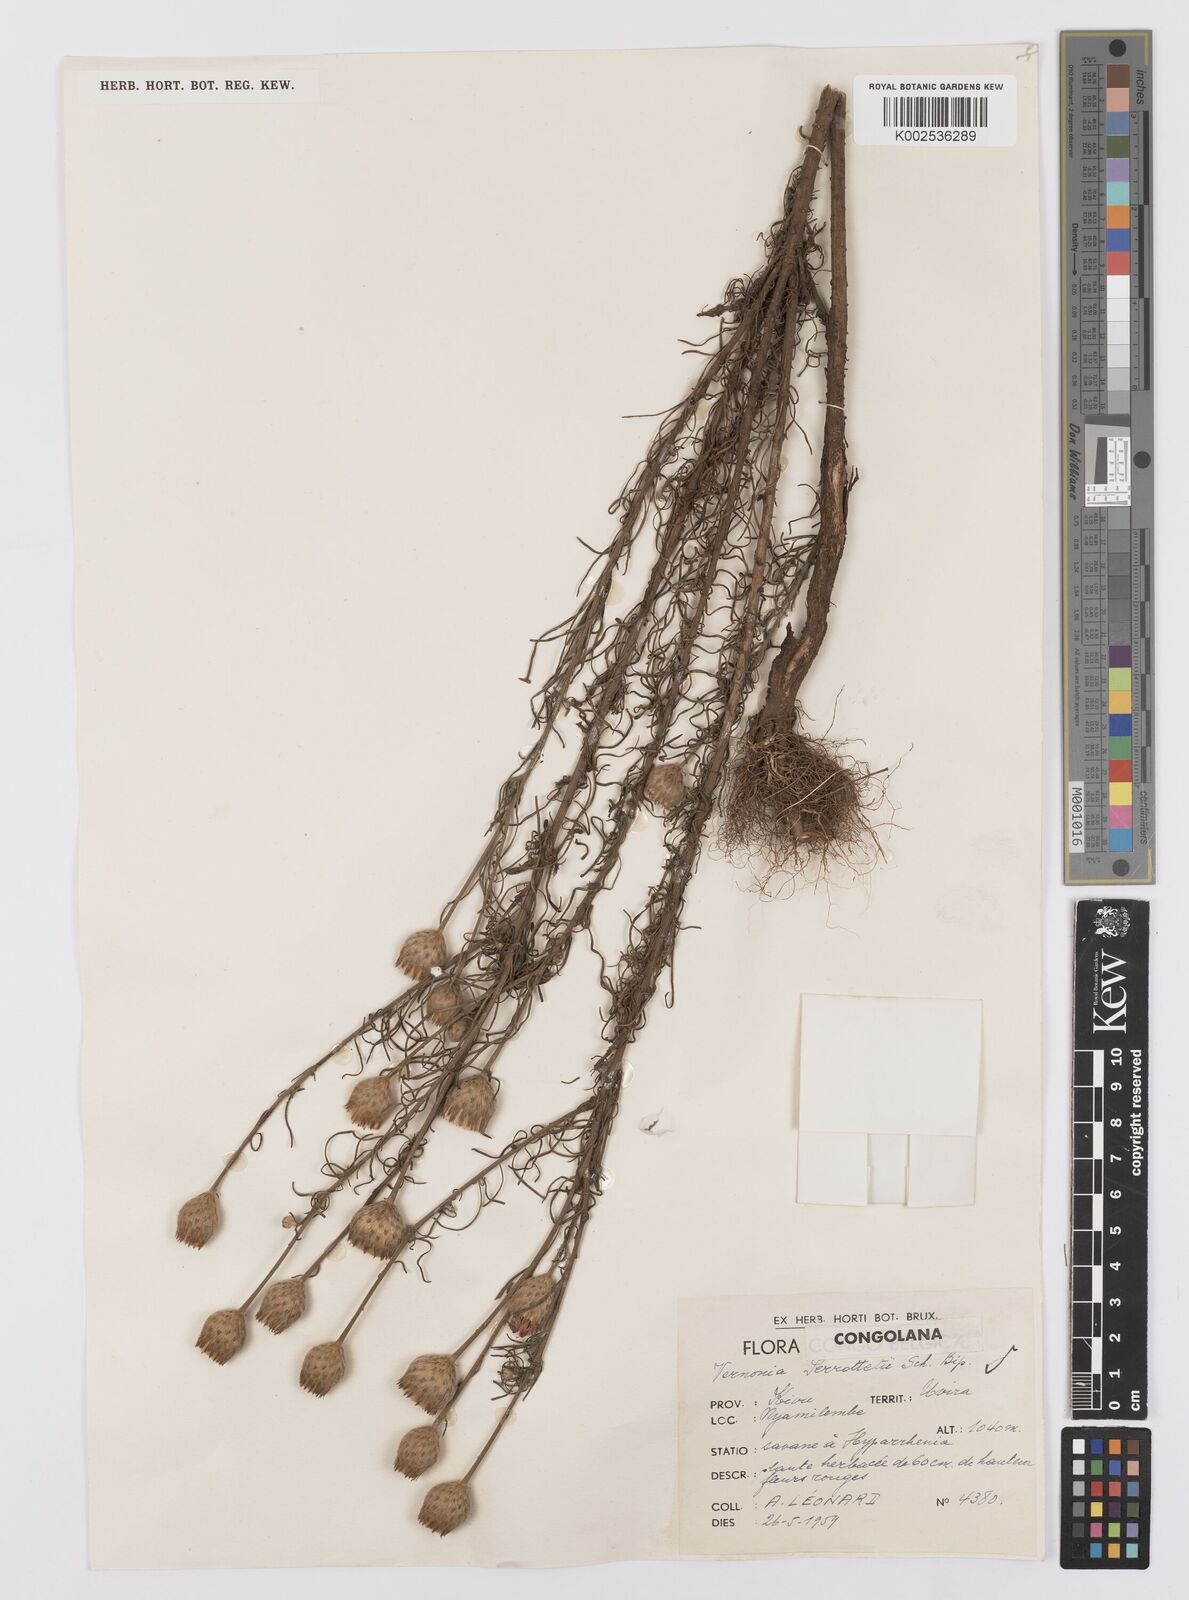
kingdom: Plantae
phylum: Tracheophyta
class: Magnoliopsida
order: Asterales
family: Asteraceae
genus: Crystallopollen
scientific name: Crystallopollen serratuloides
